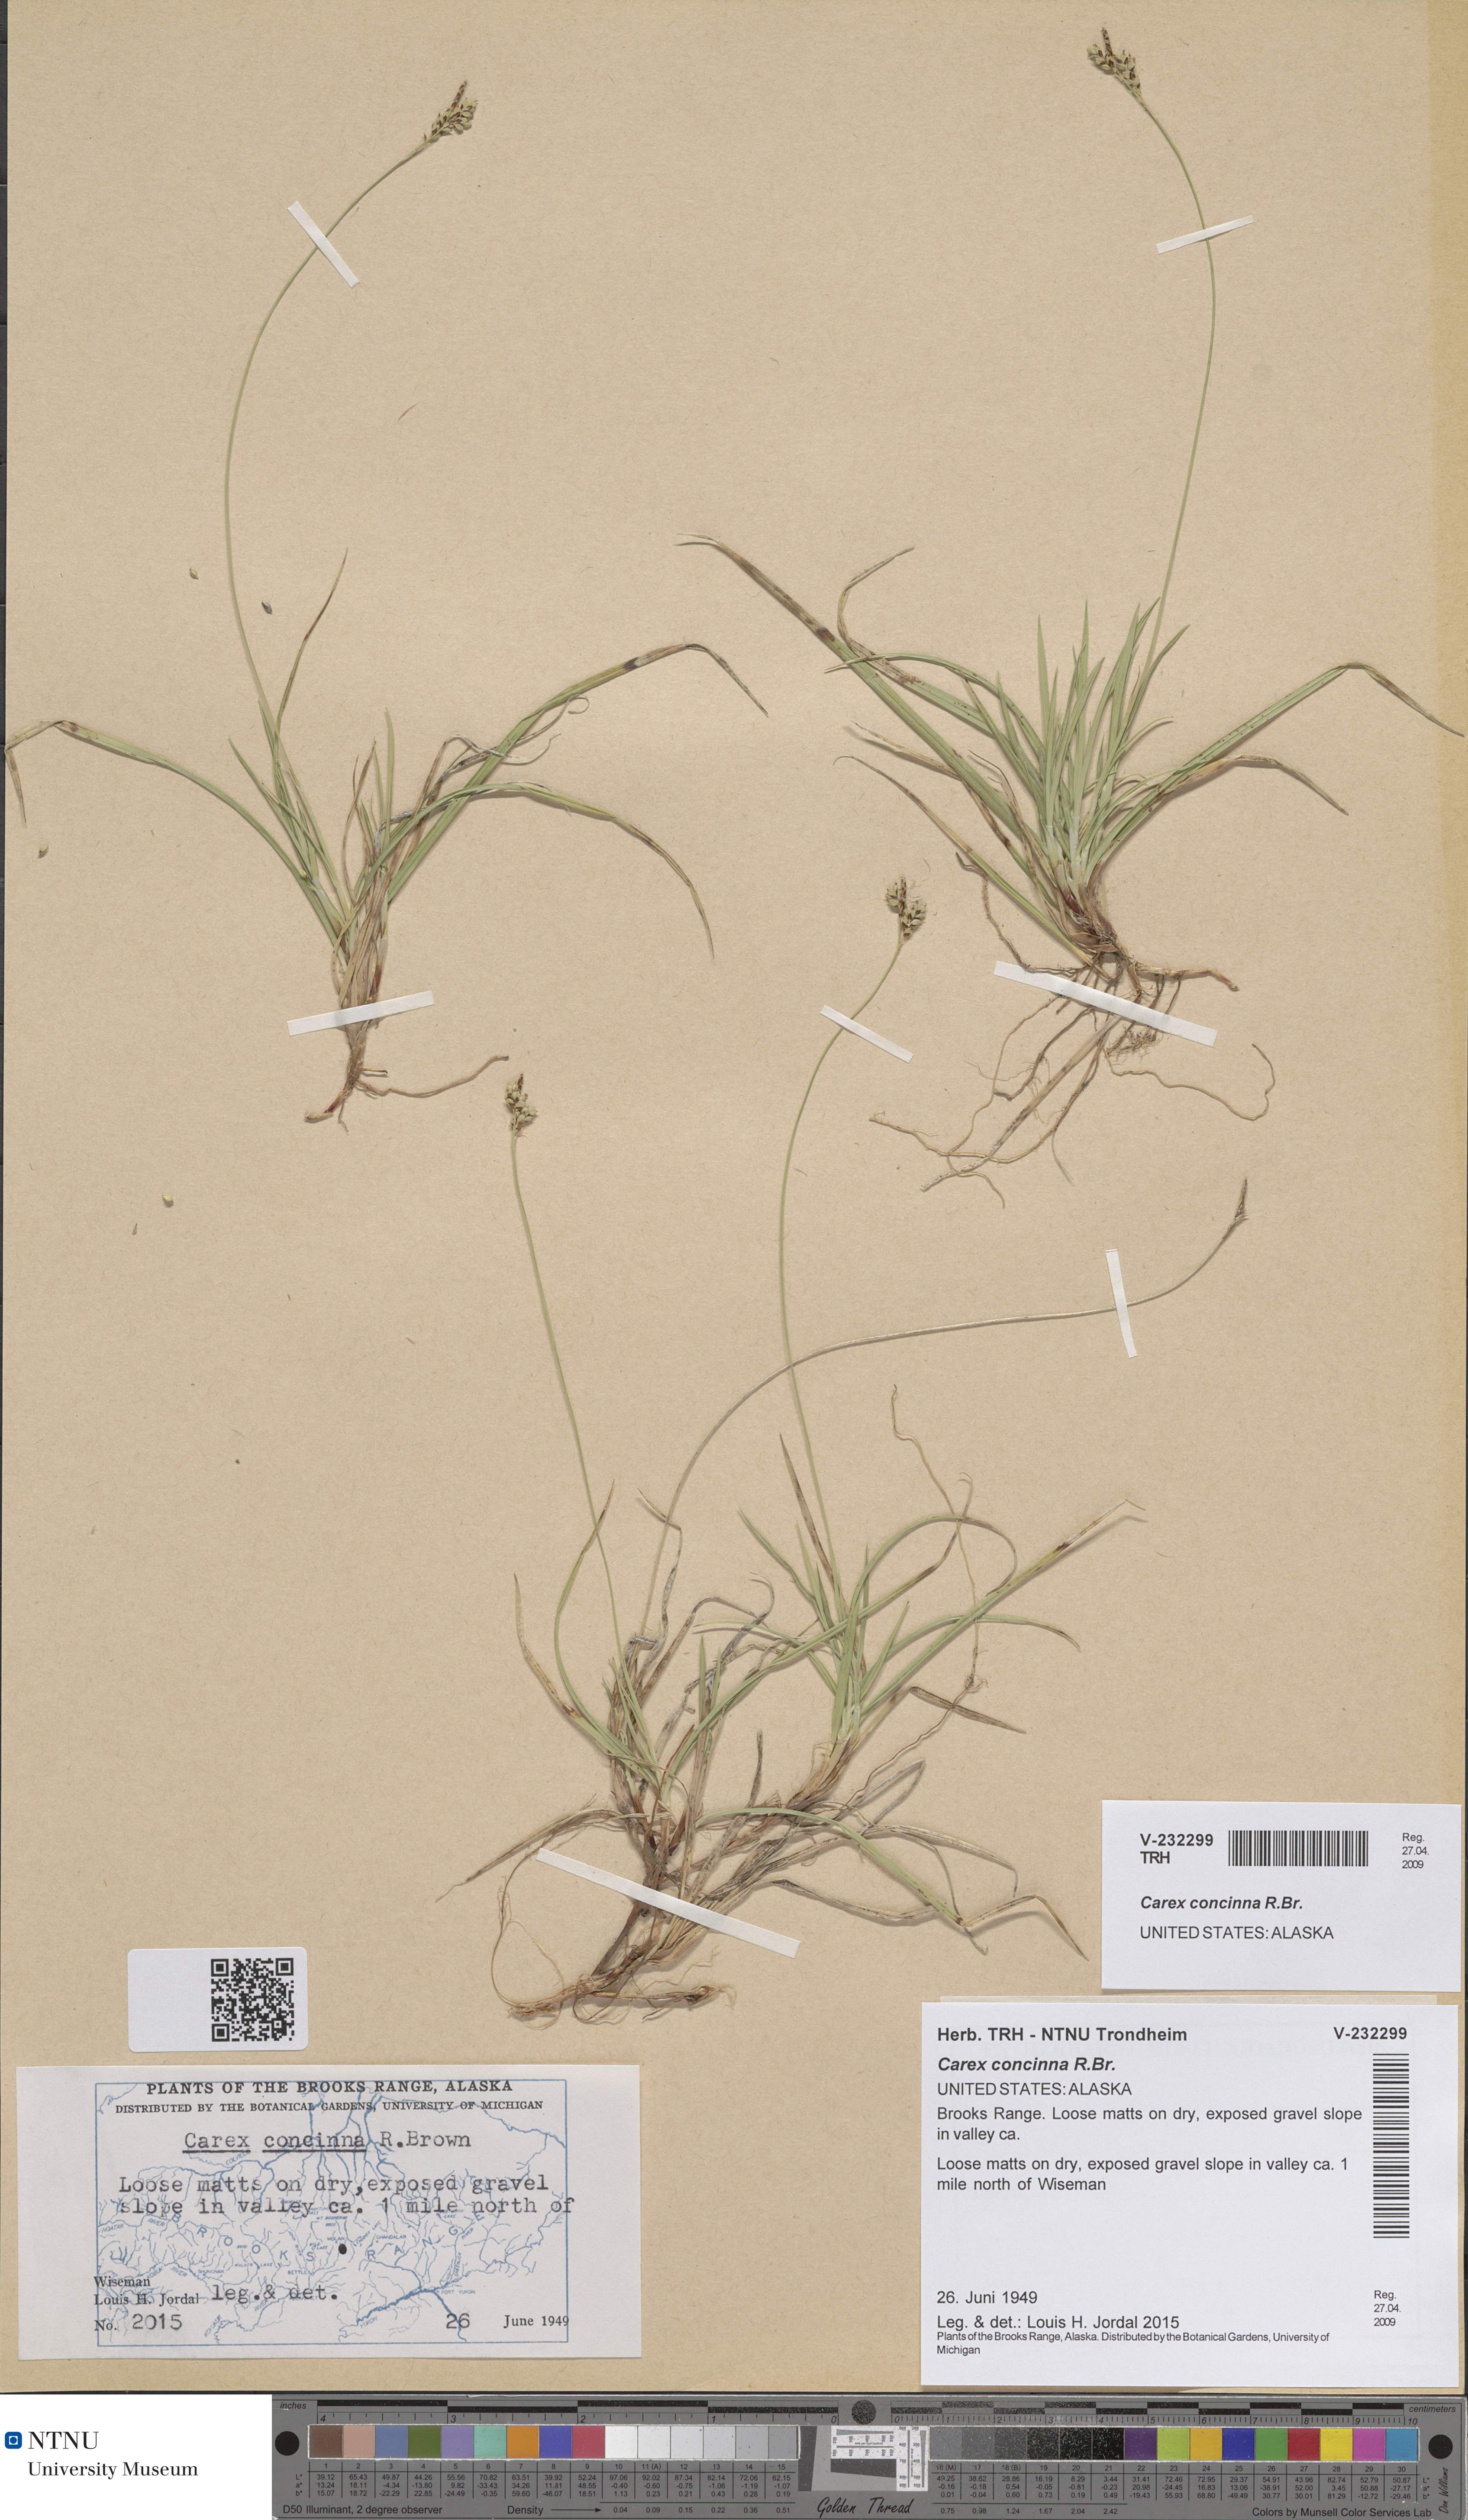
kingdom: Plantae
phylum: Tracheophyta
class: Liliopsida
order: Poales
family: Cyperaceae
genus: Carex
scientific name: Carex concinna
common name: Beautiful sedge
